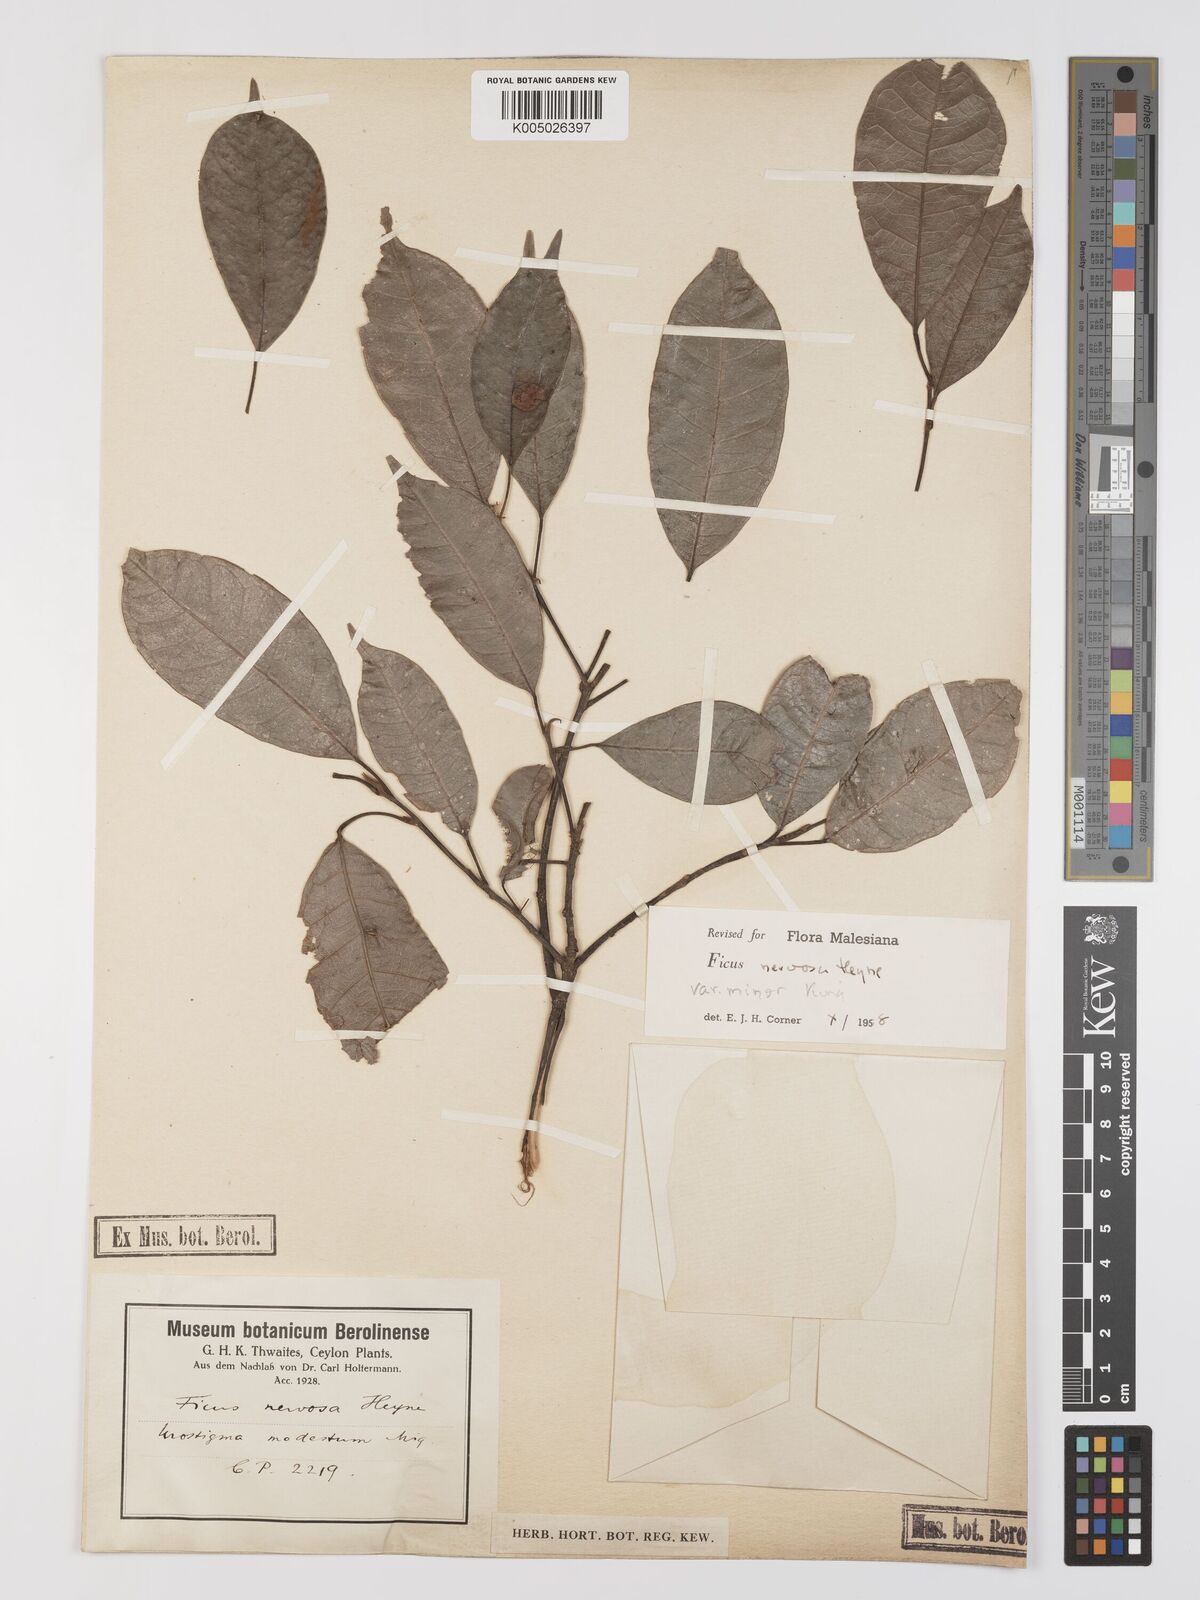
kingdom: Plantae
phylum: Tracheophyta
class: Magnoliopsida
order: Rosales
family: Moraceae
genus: Ficus
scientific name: Ficus
